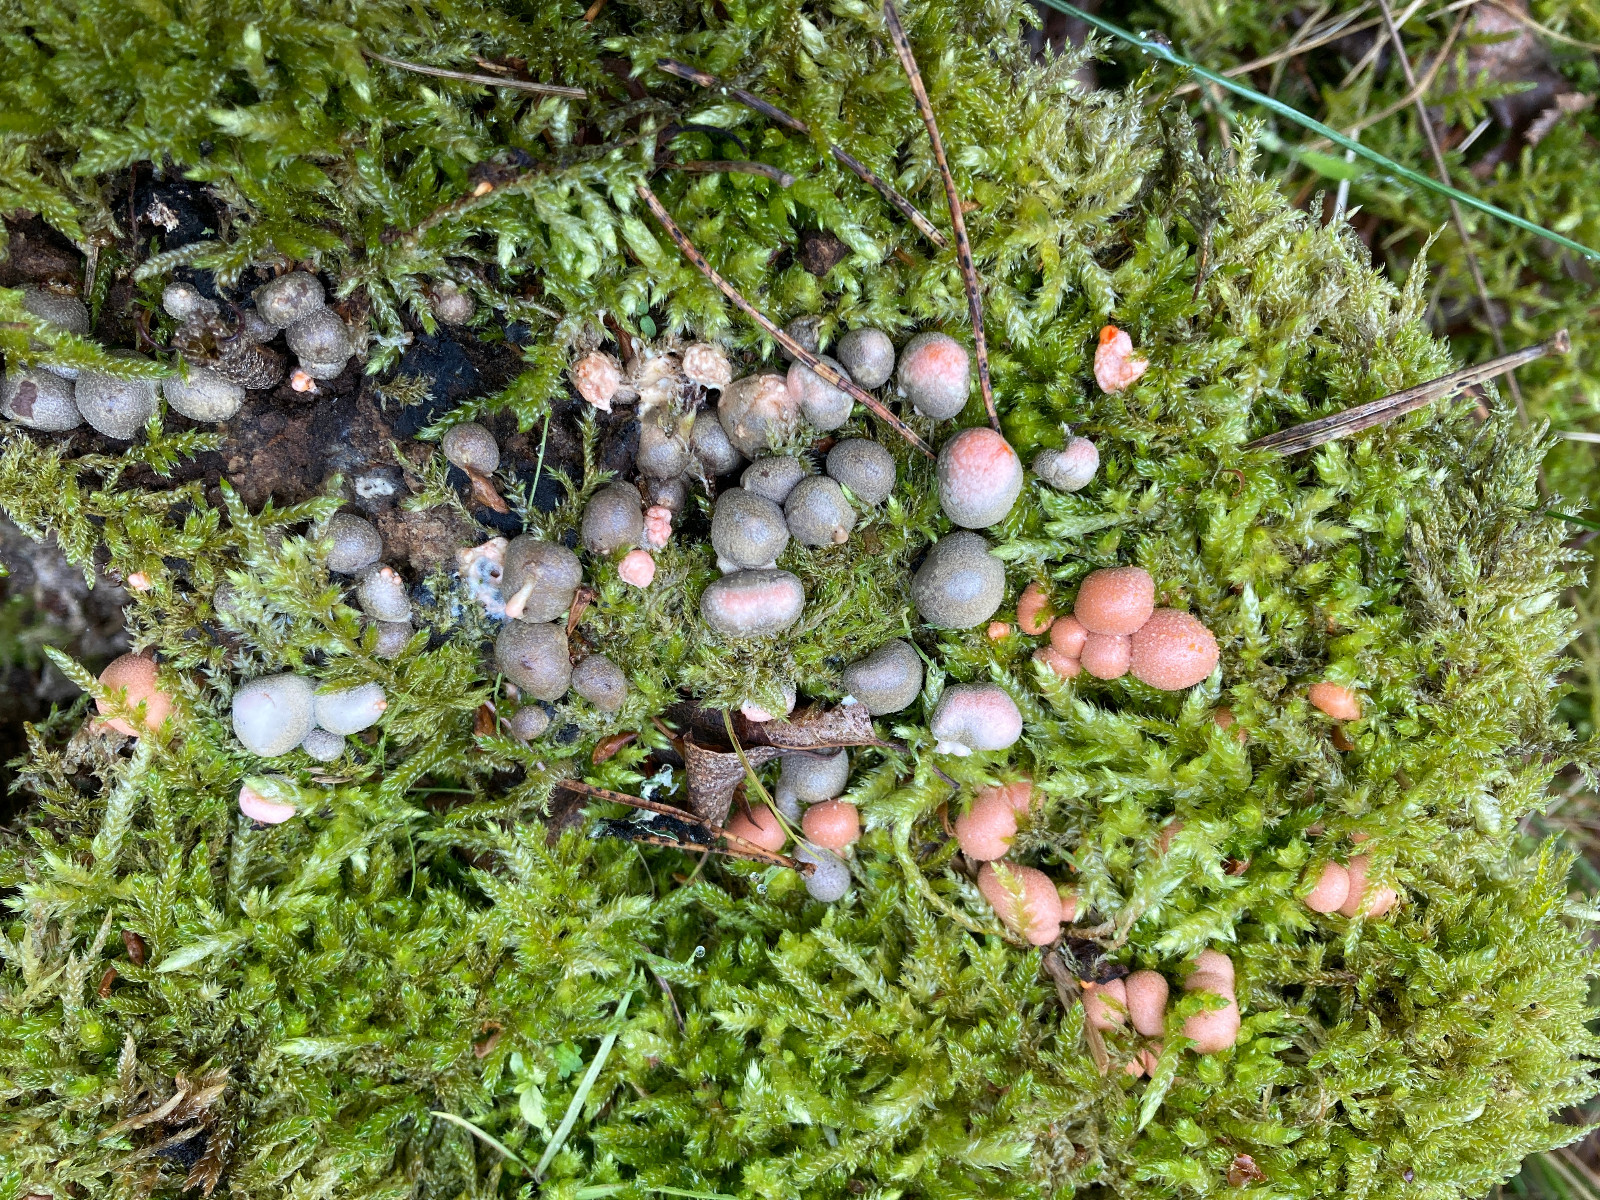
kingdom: Protozoa
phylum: Mycetozoa
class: Myxomycetes
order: Cribrariales
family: Tubiferaceae
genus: Lycogala
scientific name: Lycogala epidendrum
